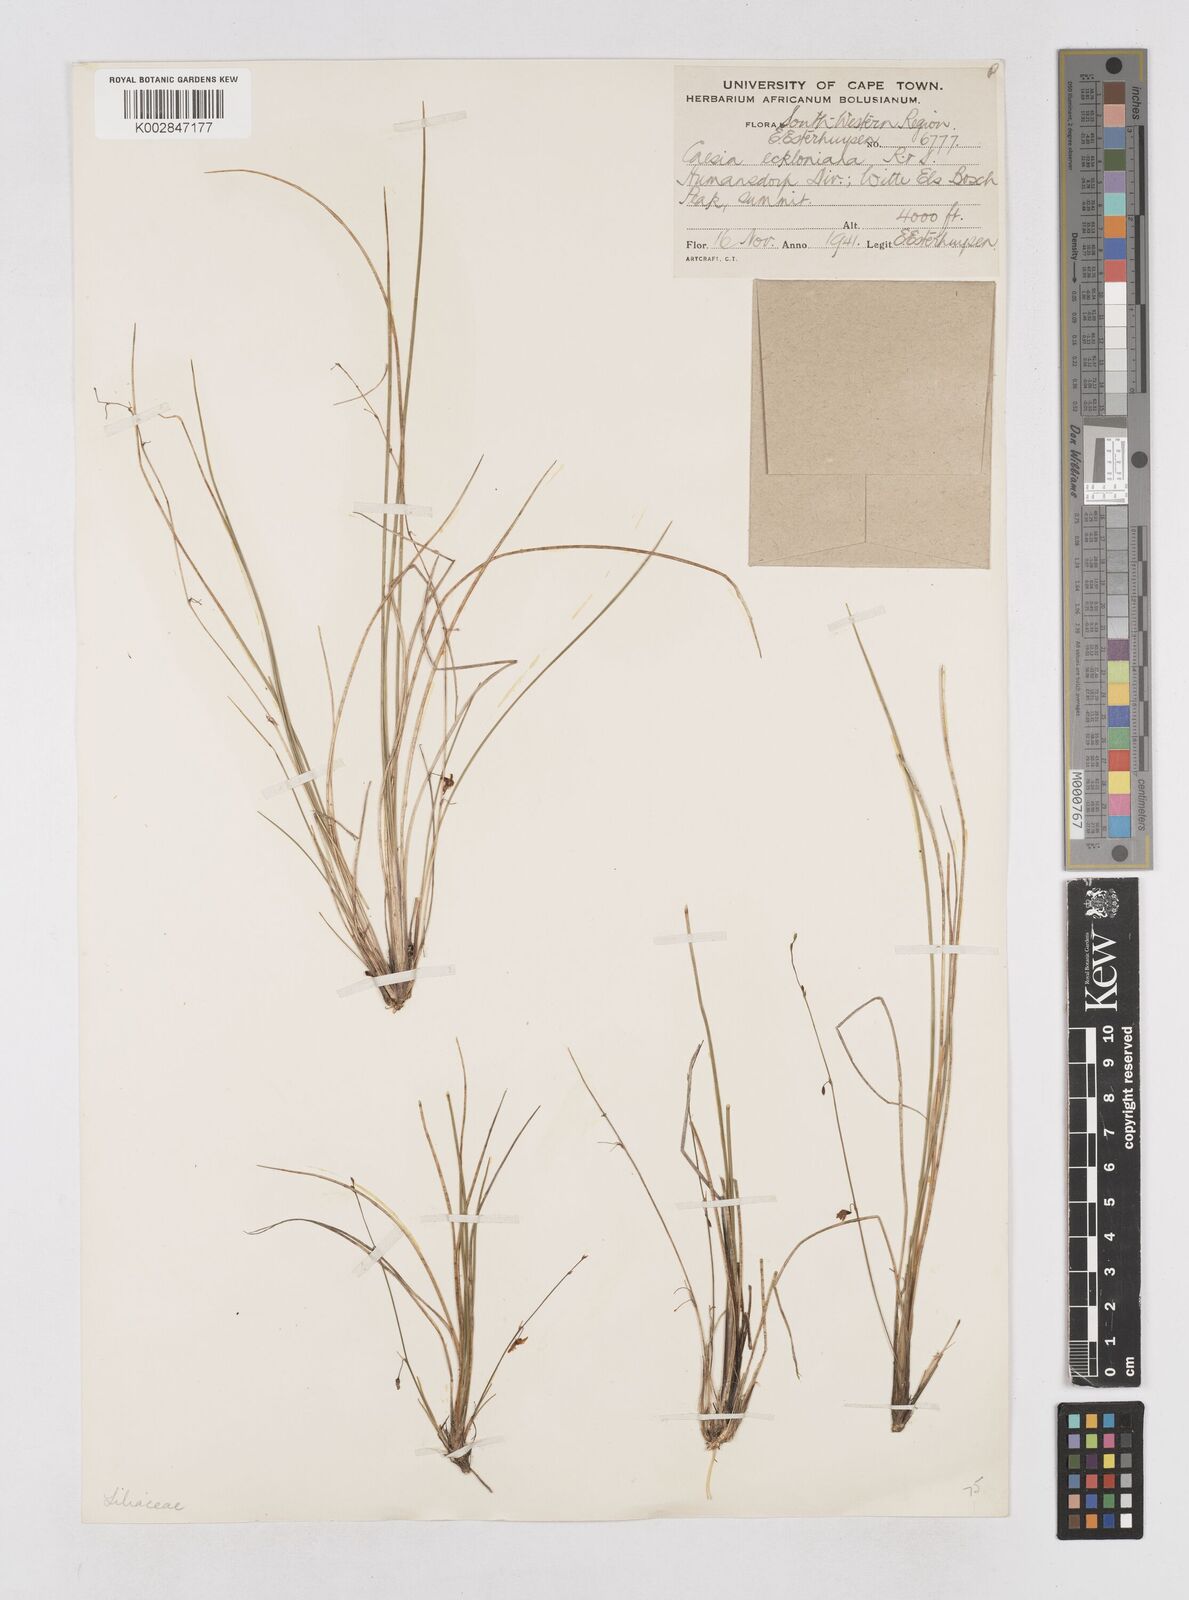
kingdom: Plantae
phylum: Tracheophyta
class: Liliopsida
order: Asparagales
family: Asphodelaceae
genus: Caesia
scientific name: Caesia contorta
